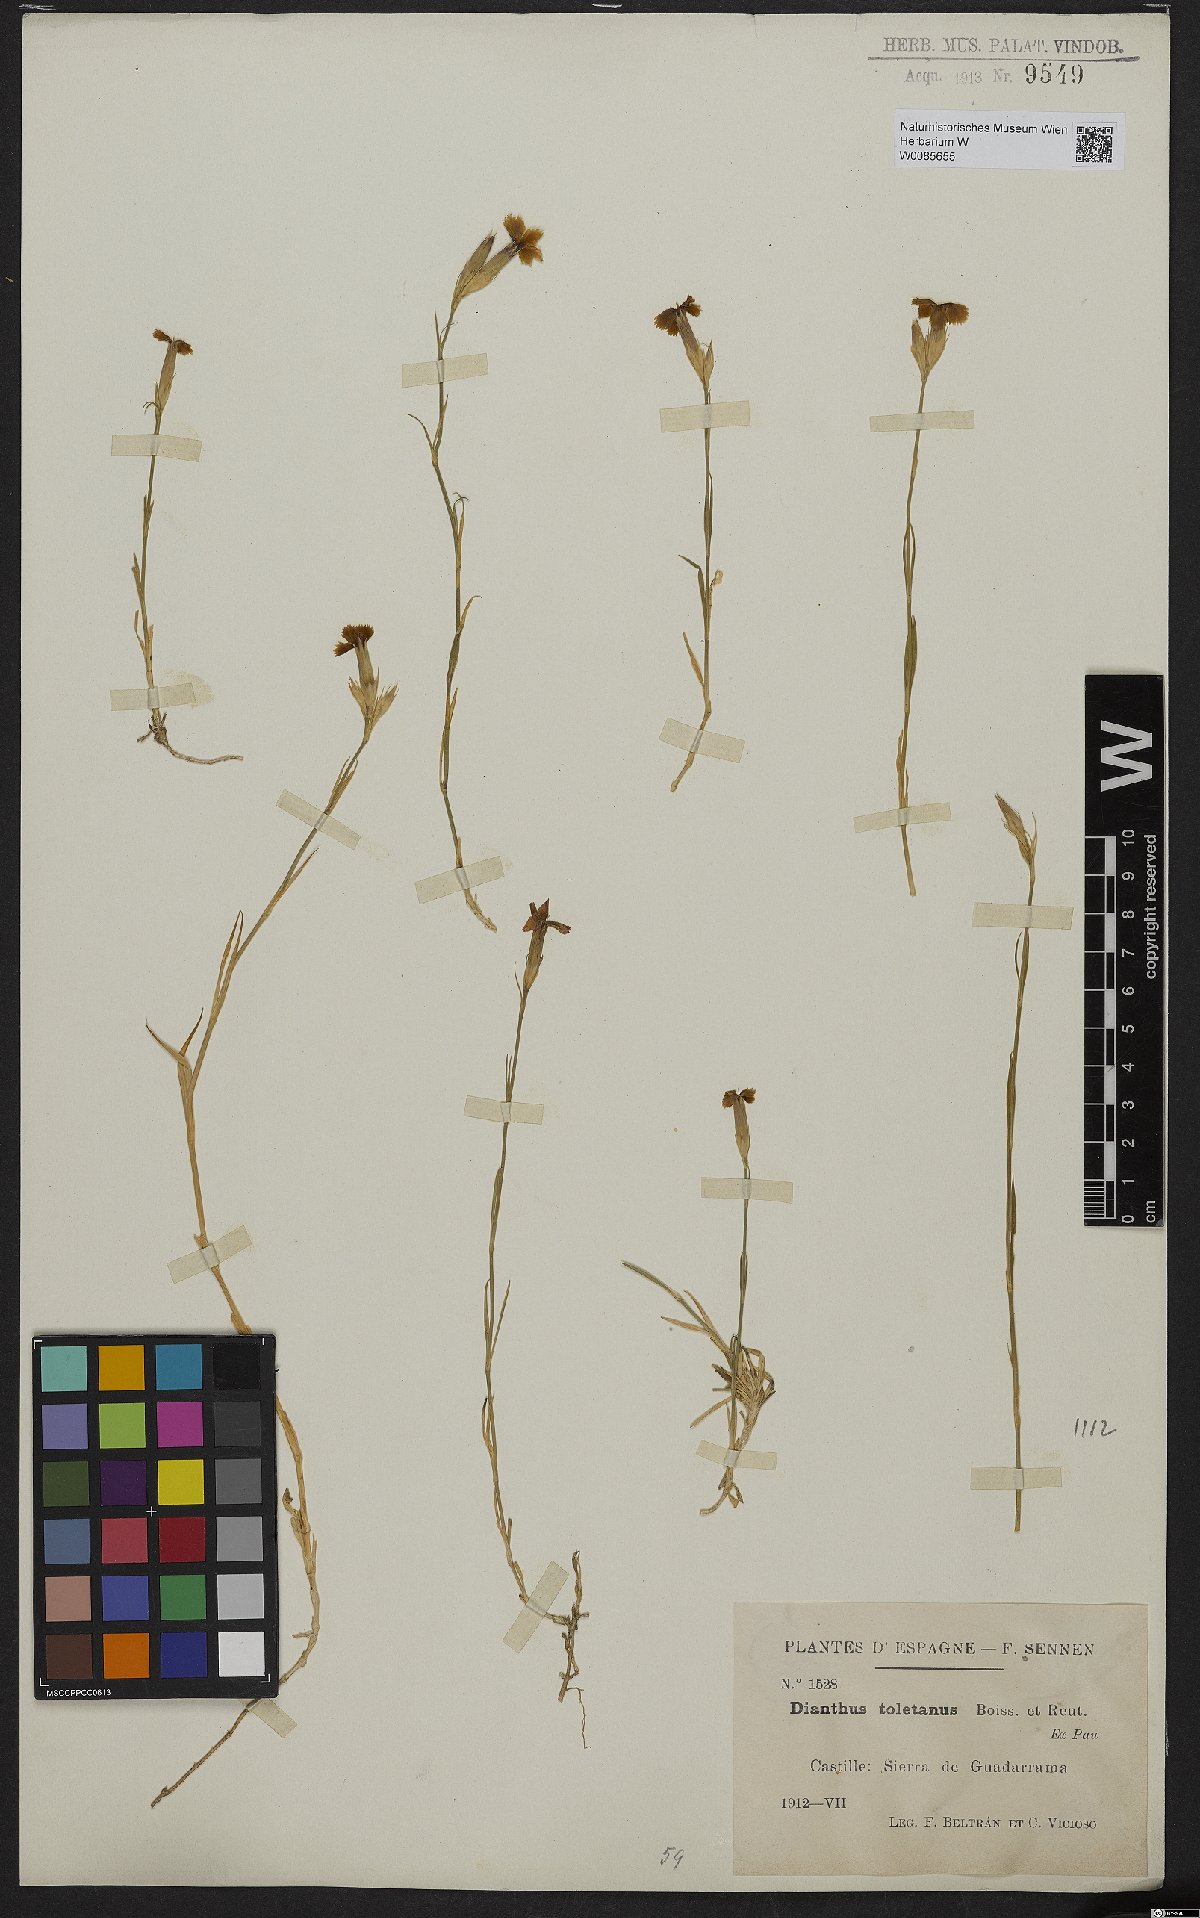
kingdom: Plantae
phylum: Tracheophyta
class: Magnoliopsida
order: Caryophyllales
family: Caryophyllaceae
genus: Dianthus
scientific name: Dianthus toletanus
